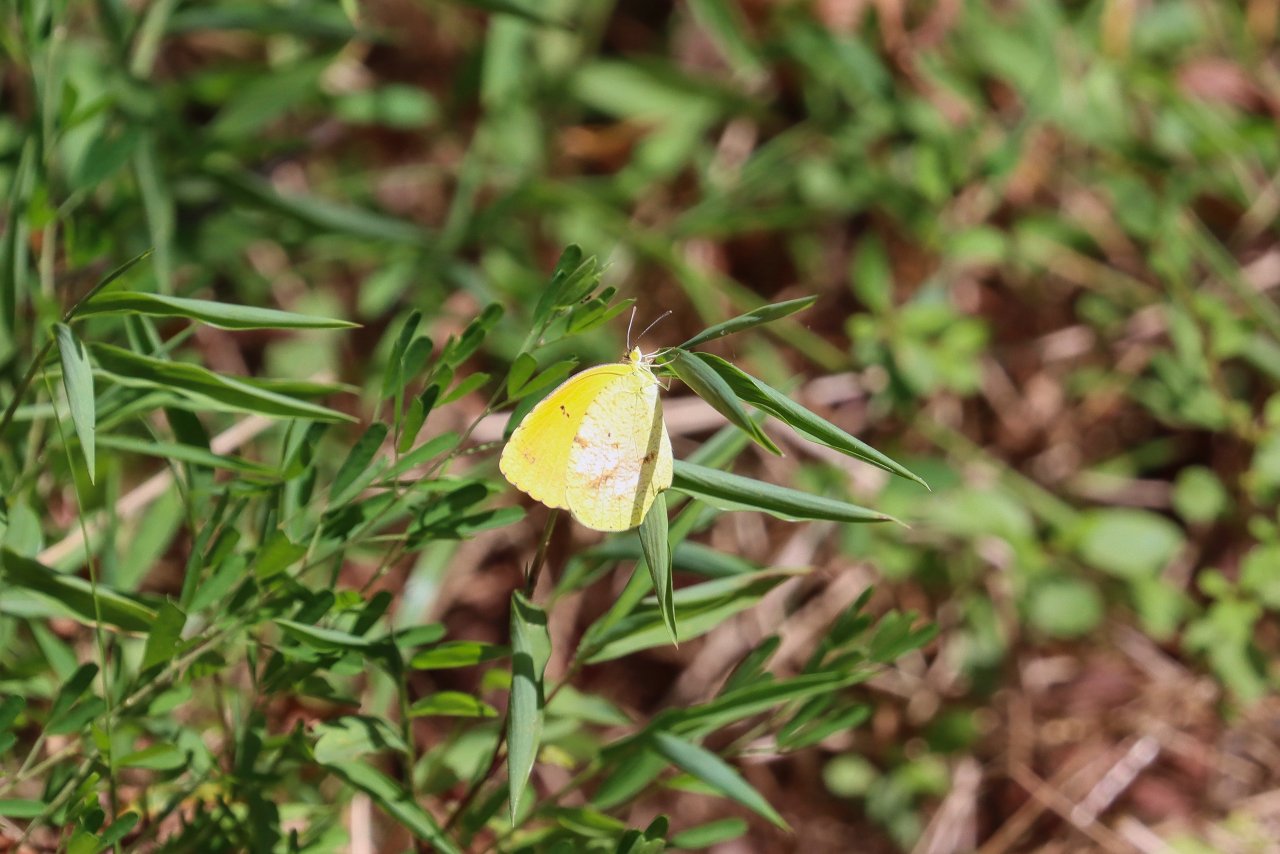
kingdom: Animalia
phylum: Arthropoda
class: Insecta
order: Lepidoptera
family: Pieridae
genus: Abaeis
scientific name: Abaeis nicippe
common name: Sleepy Orange
